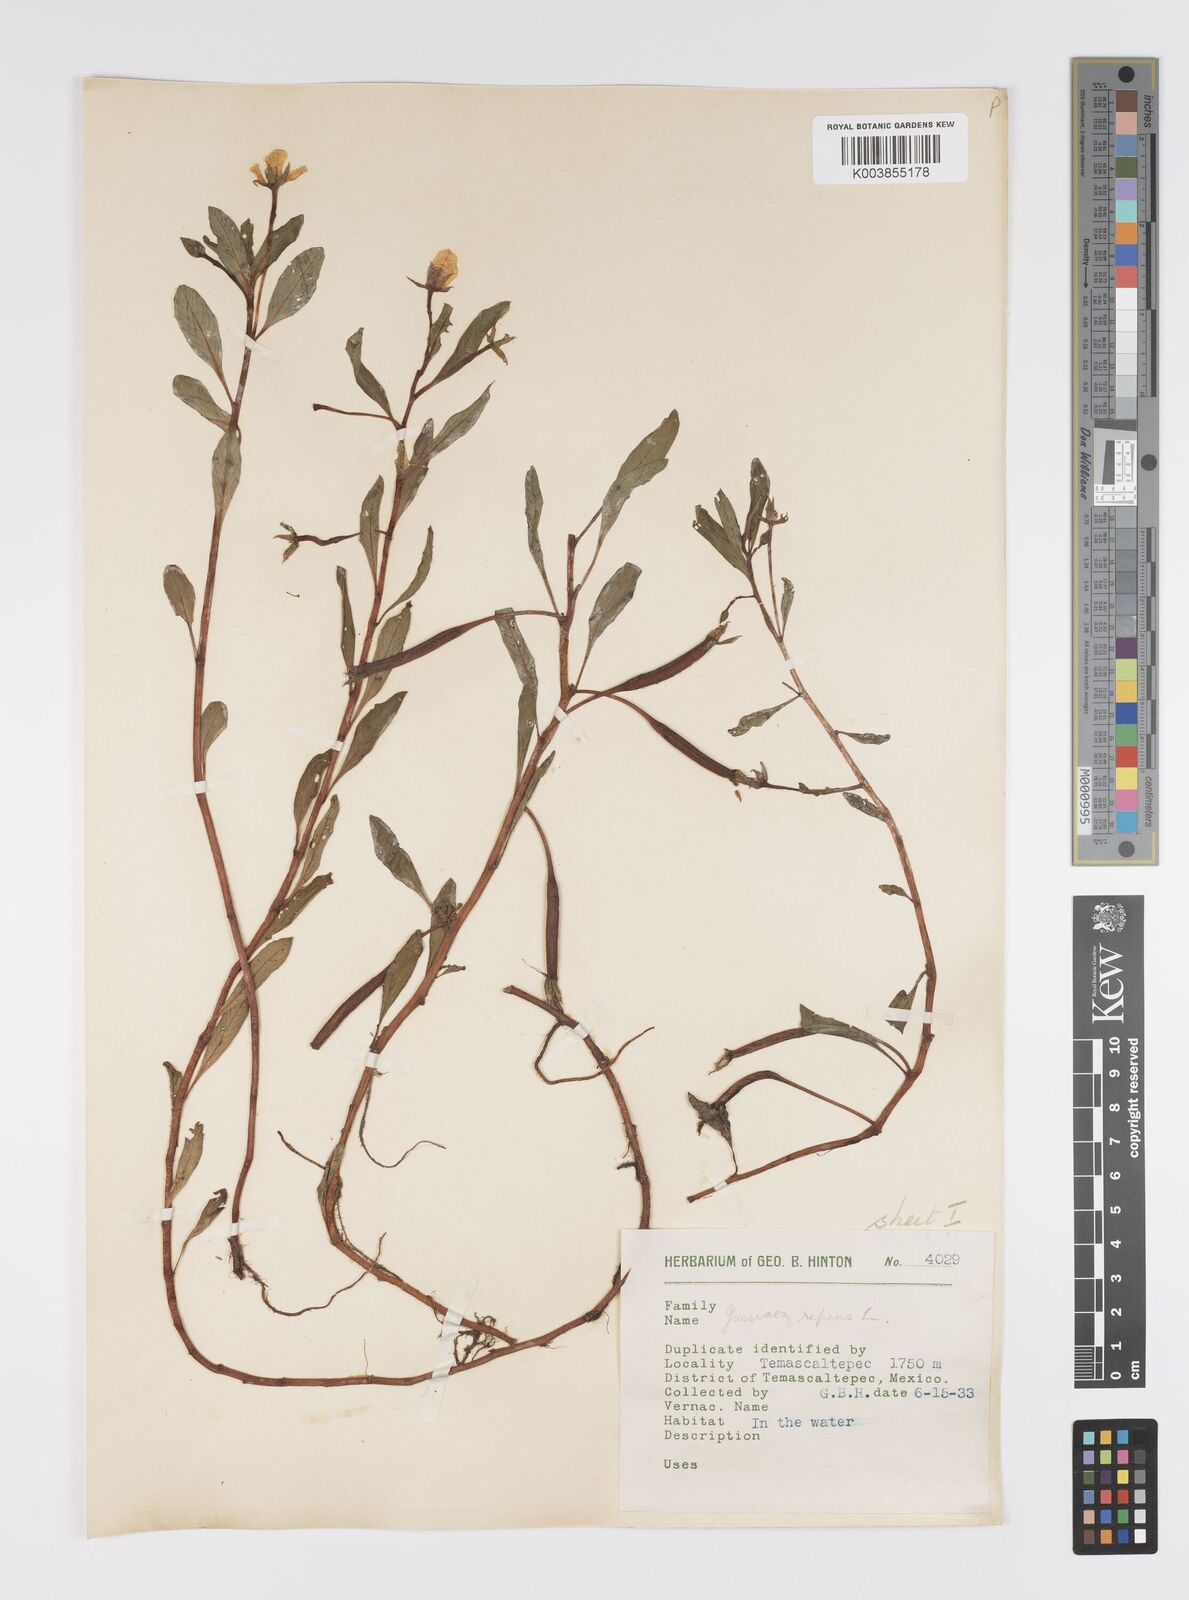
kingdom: Plantae
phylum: Tracheophyta
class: Magnoliopsida
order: Myrtales
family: Onagraceae
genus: Ludwigia
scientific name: Ludwigia peploides
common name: Floating primrose-willow
